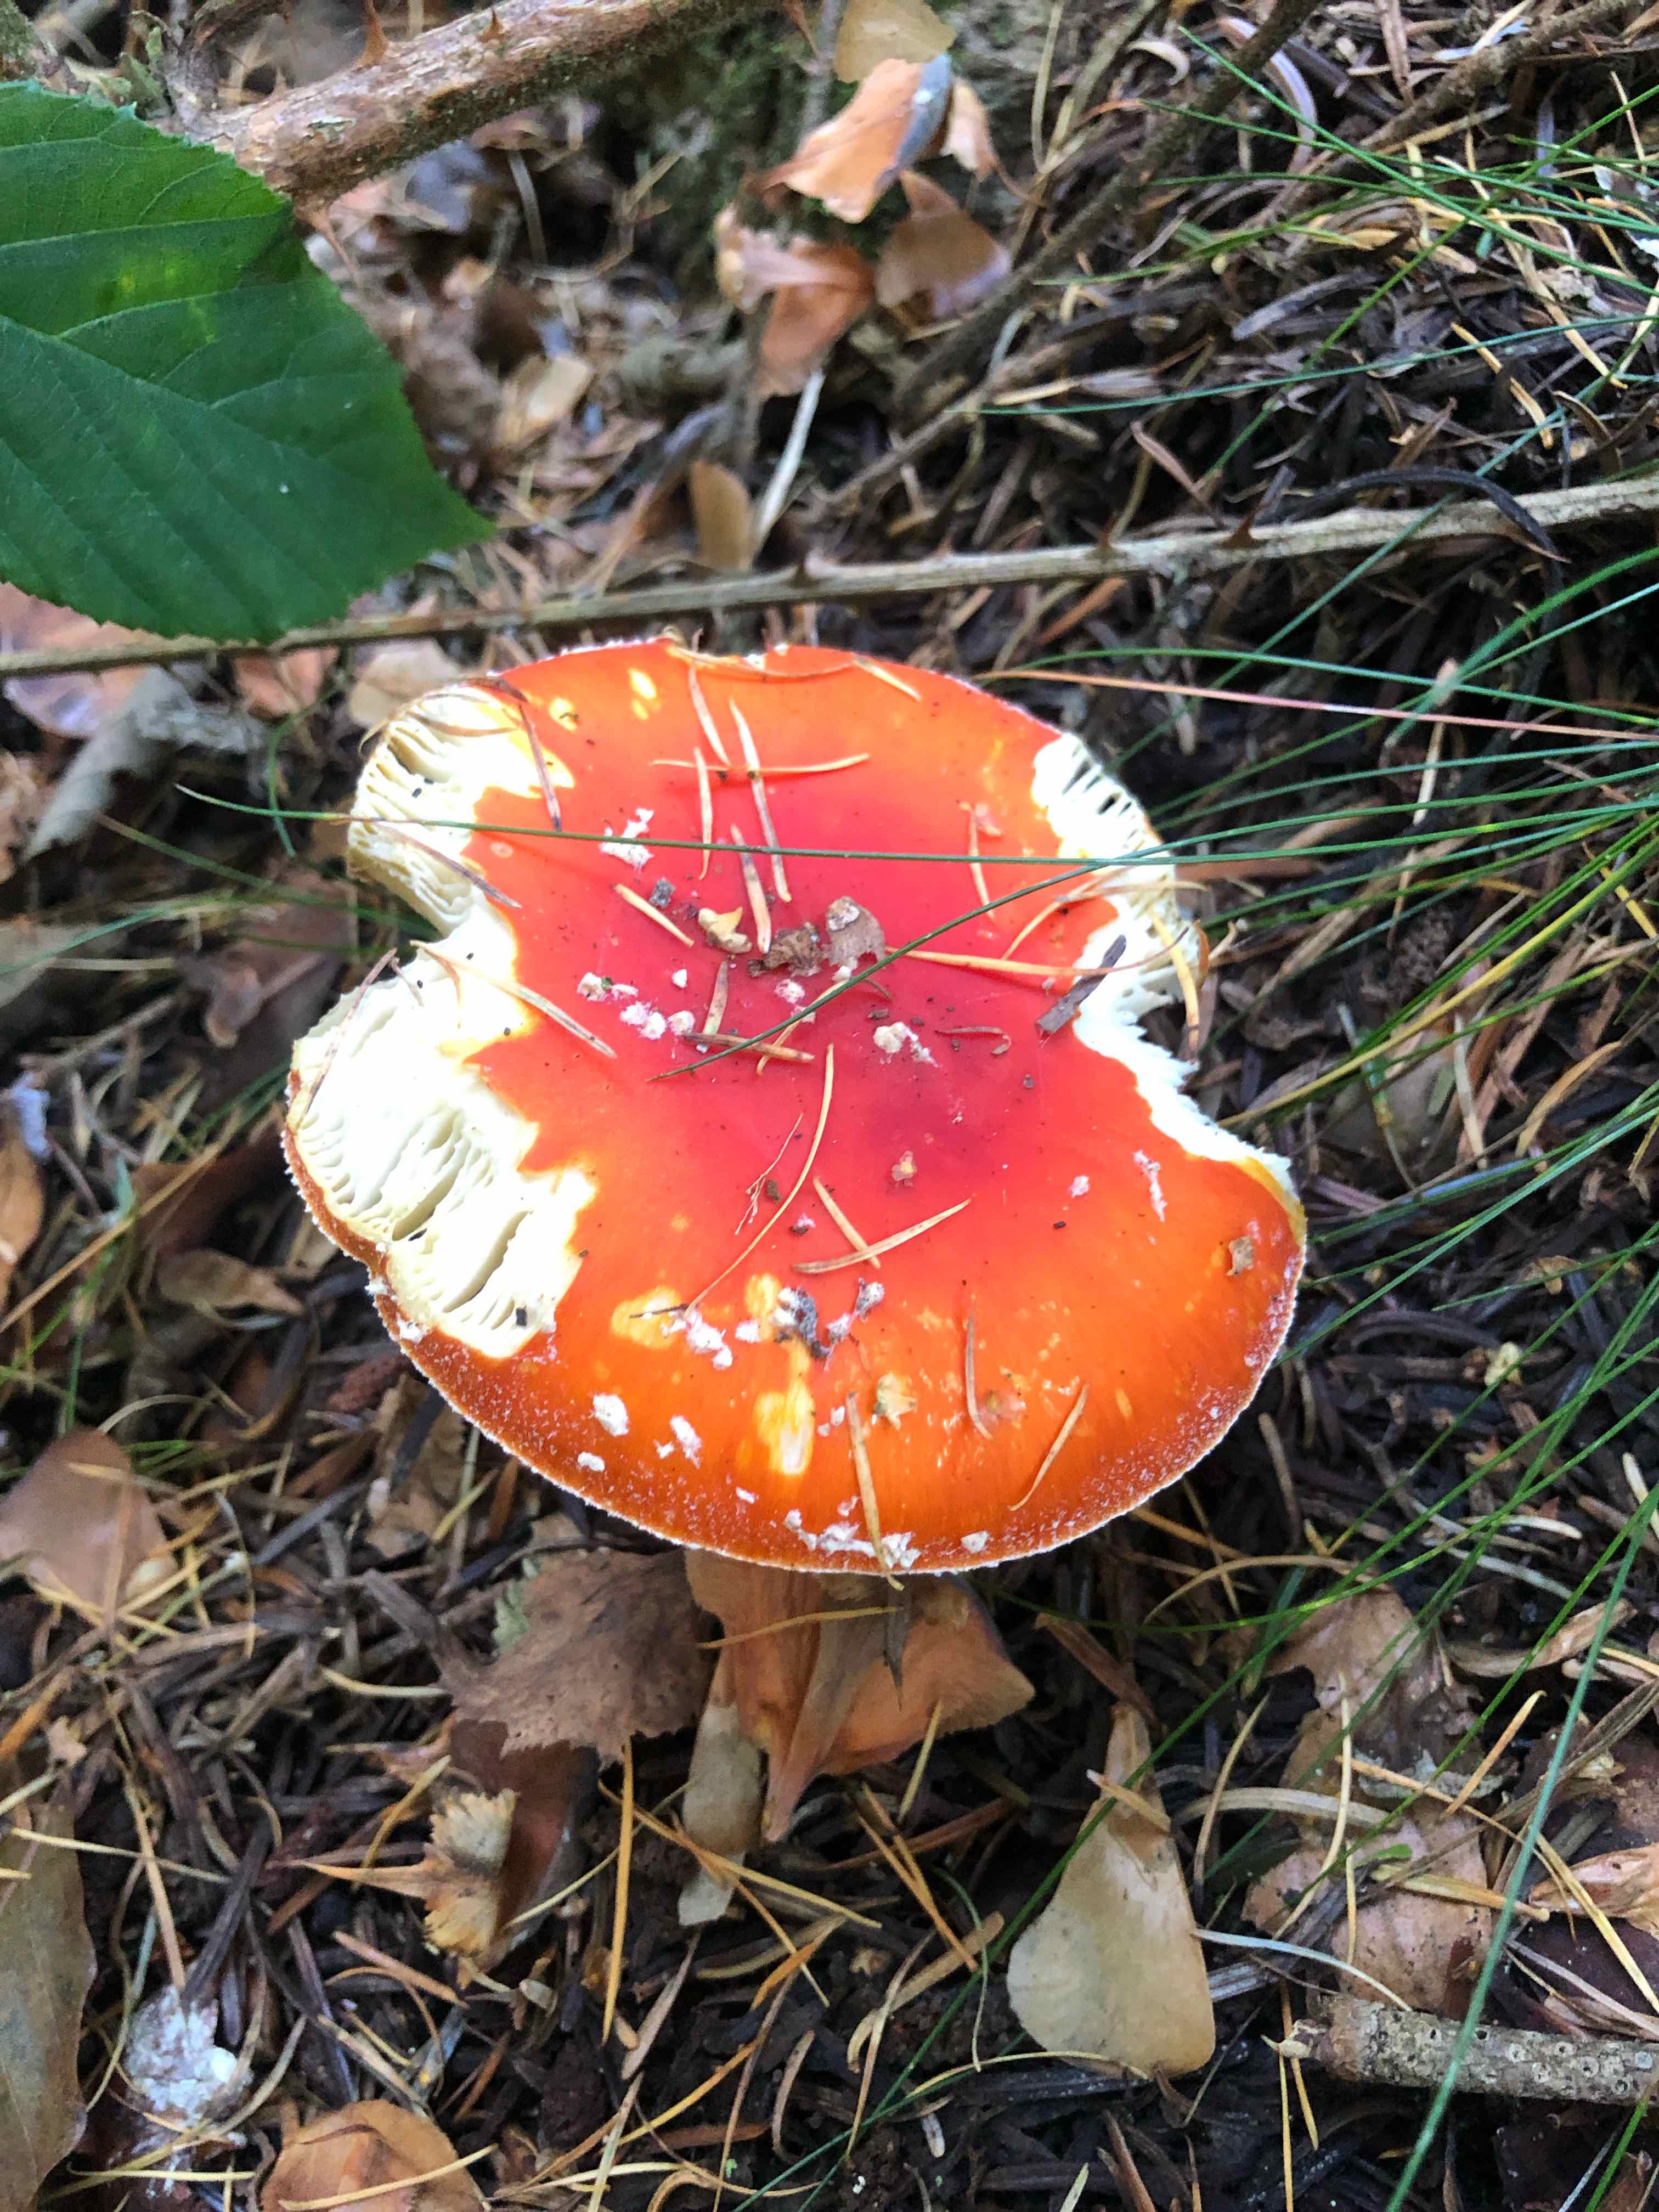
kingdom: Fungi
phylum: Basidiomycota
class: Agaricomycetes
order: Agaricales
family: Amanitaceae
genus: Amanita
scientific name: Amanita muscaria
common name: rød fluesvamp
